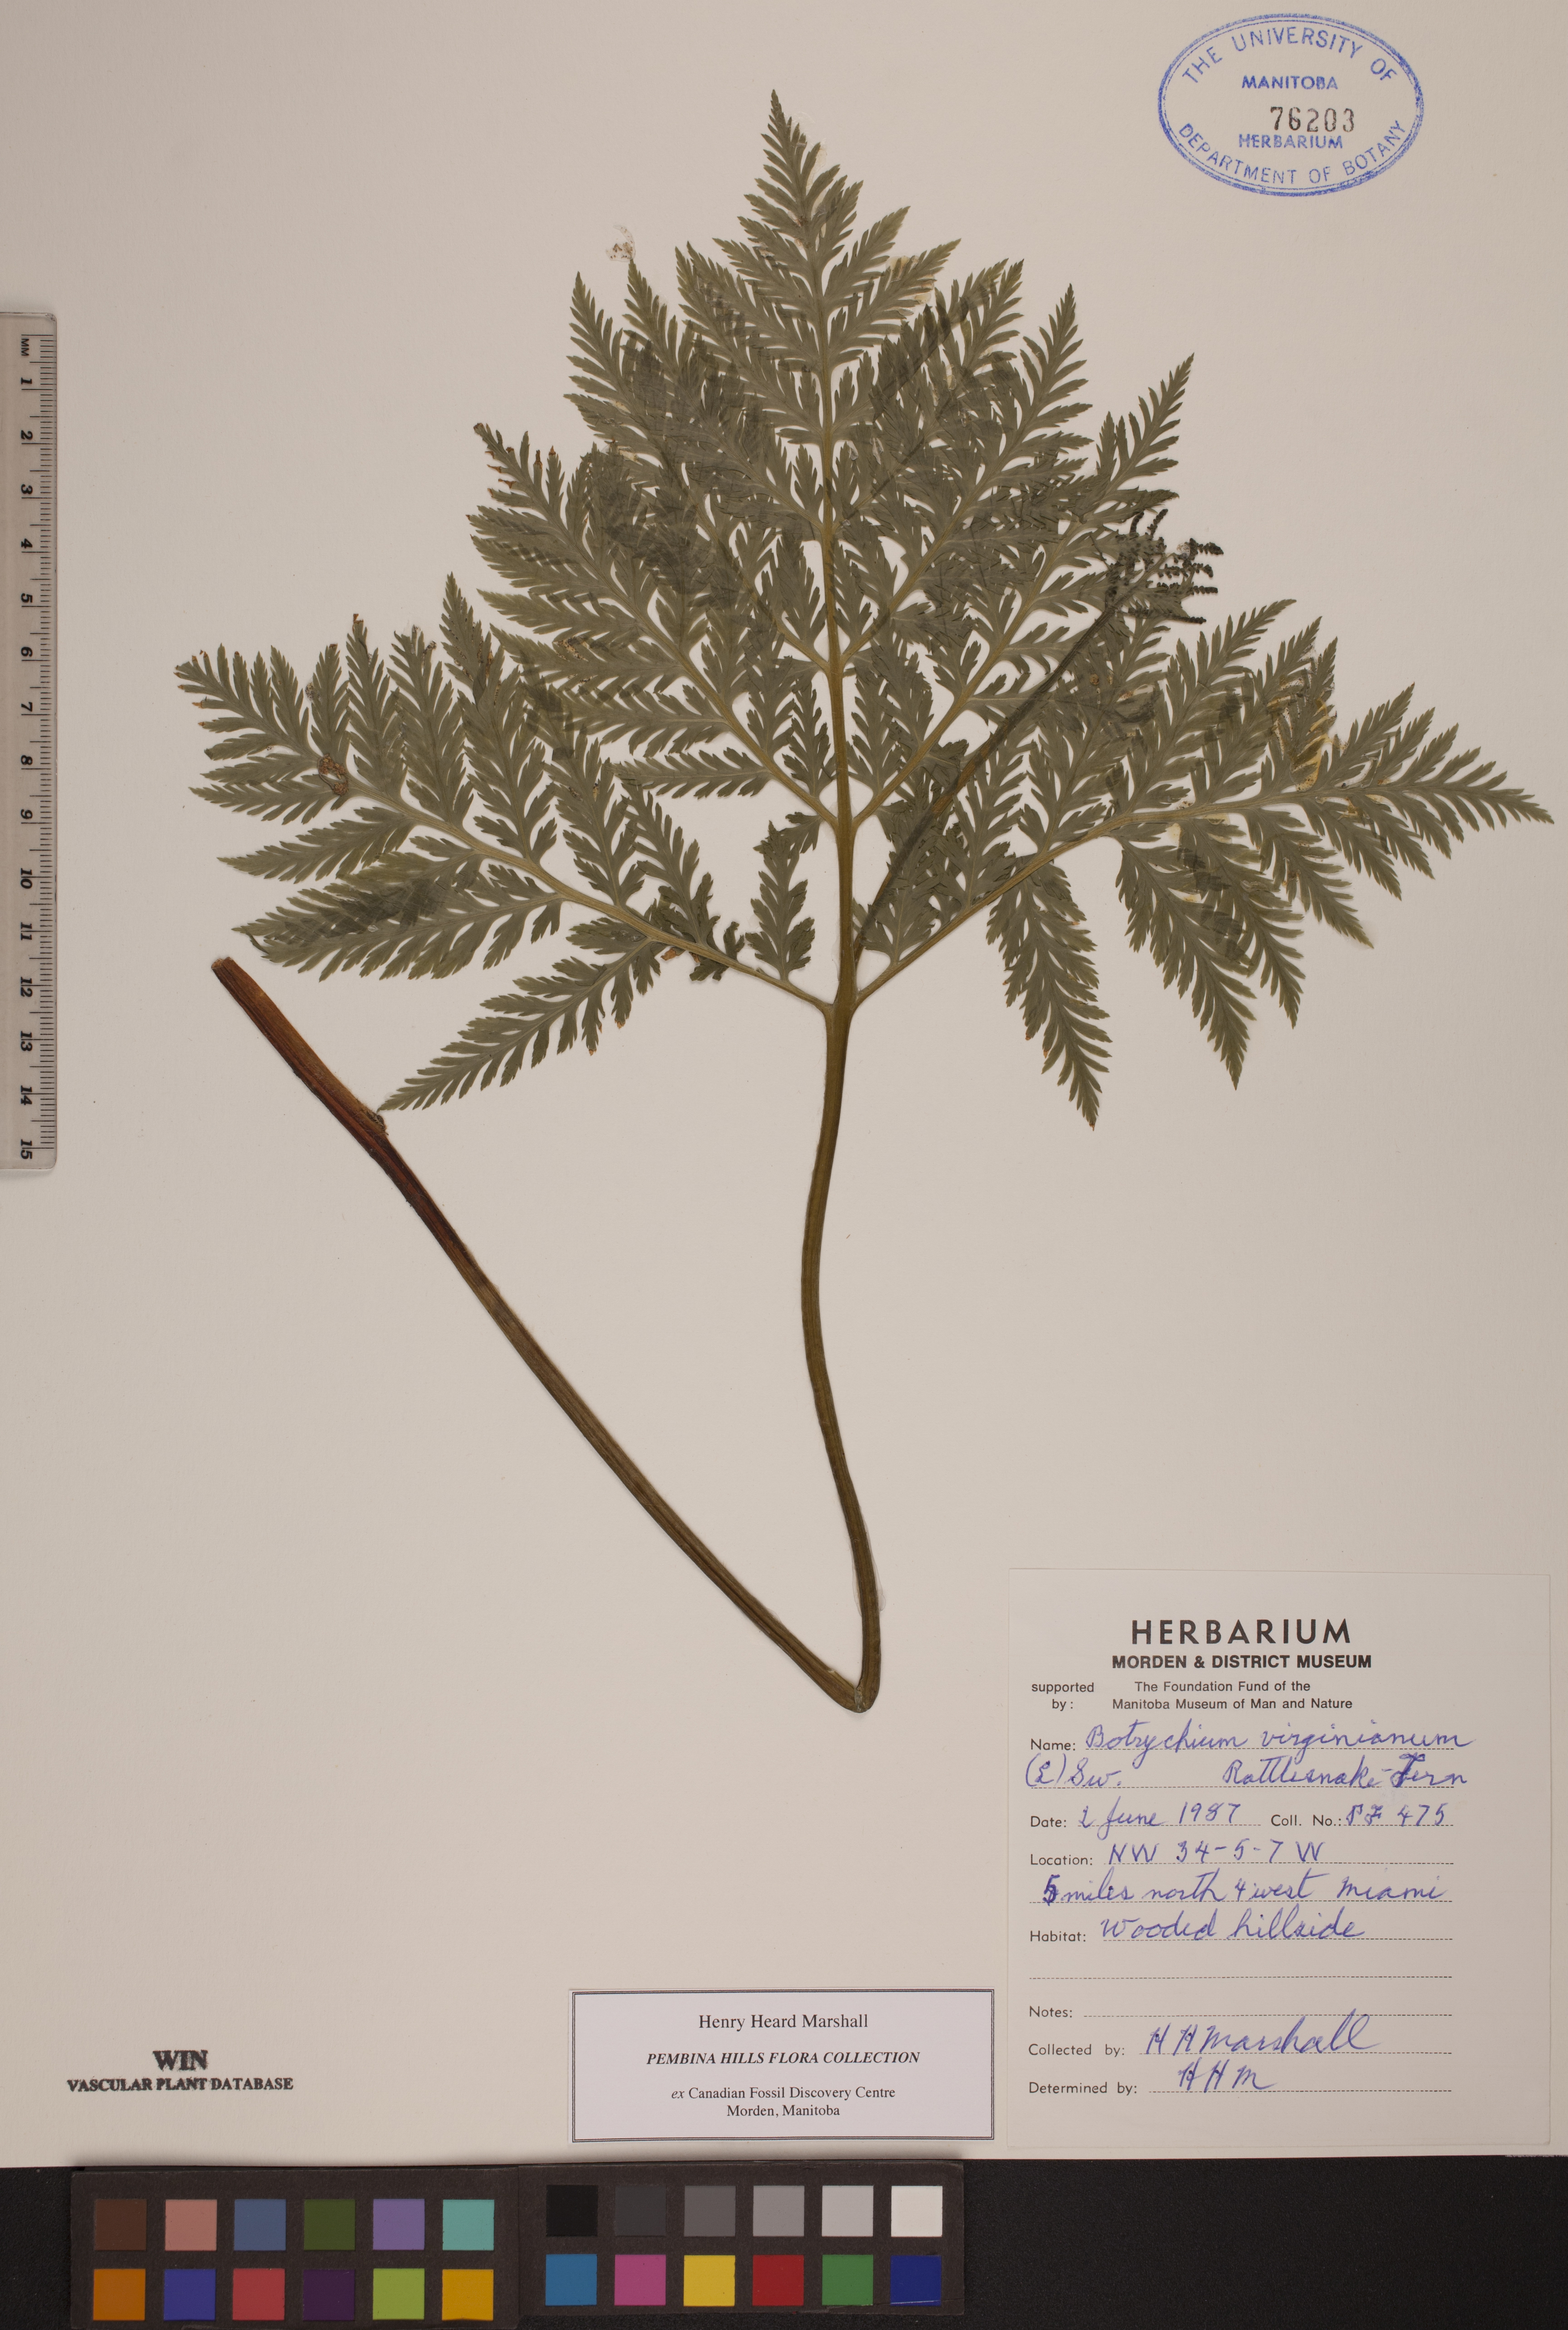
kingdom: Plantae
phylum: Tracheophyta
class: Polypodiopsida
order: Ophioglossales
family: Ophioglossaceae
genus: Botrypus
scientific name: Botrypus virginianus
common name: Common grapefern
